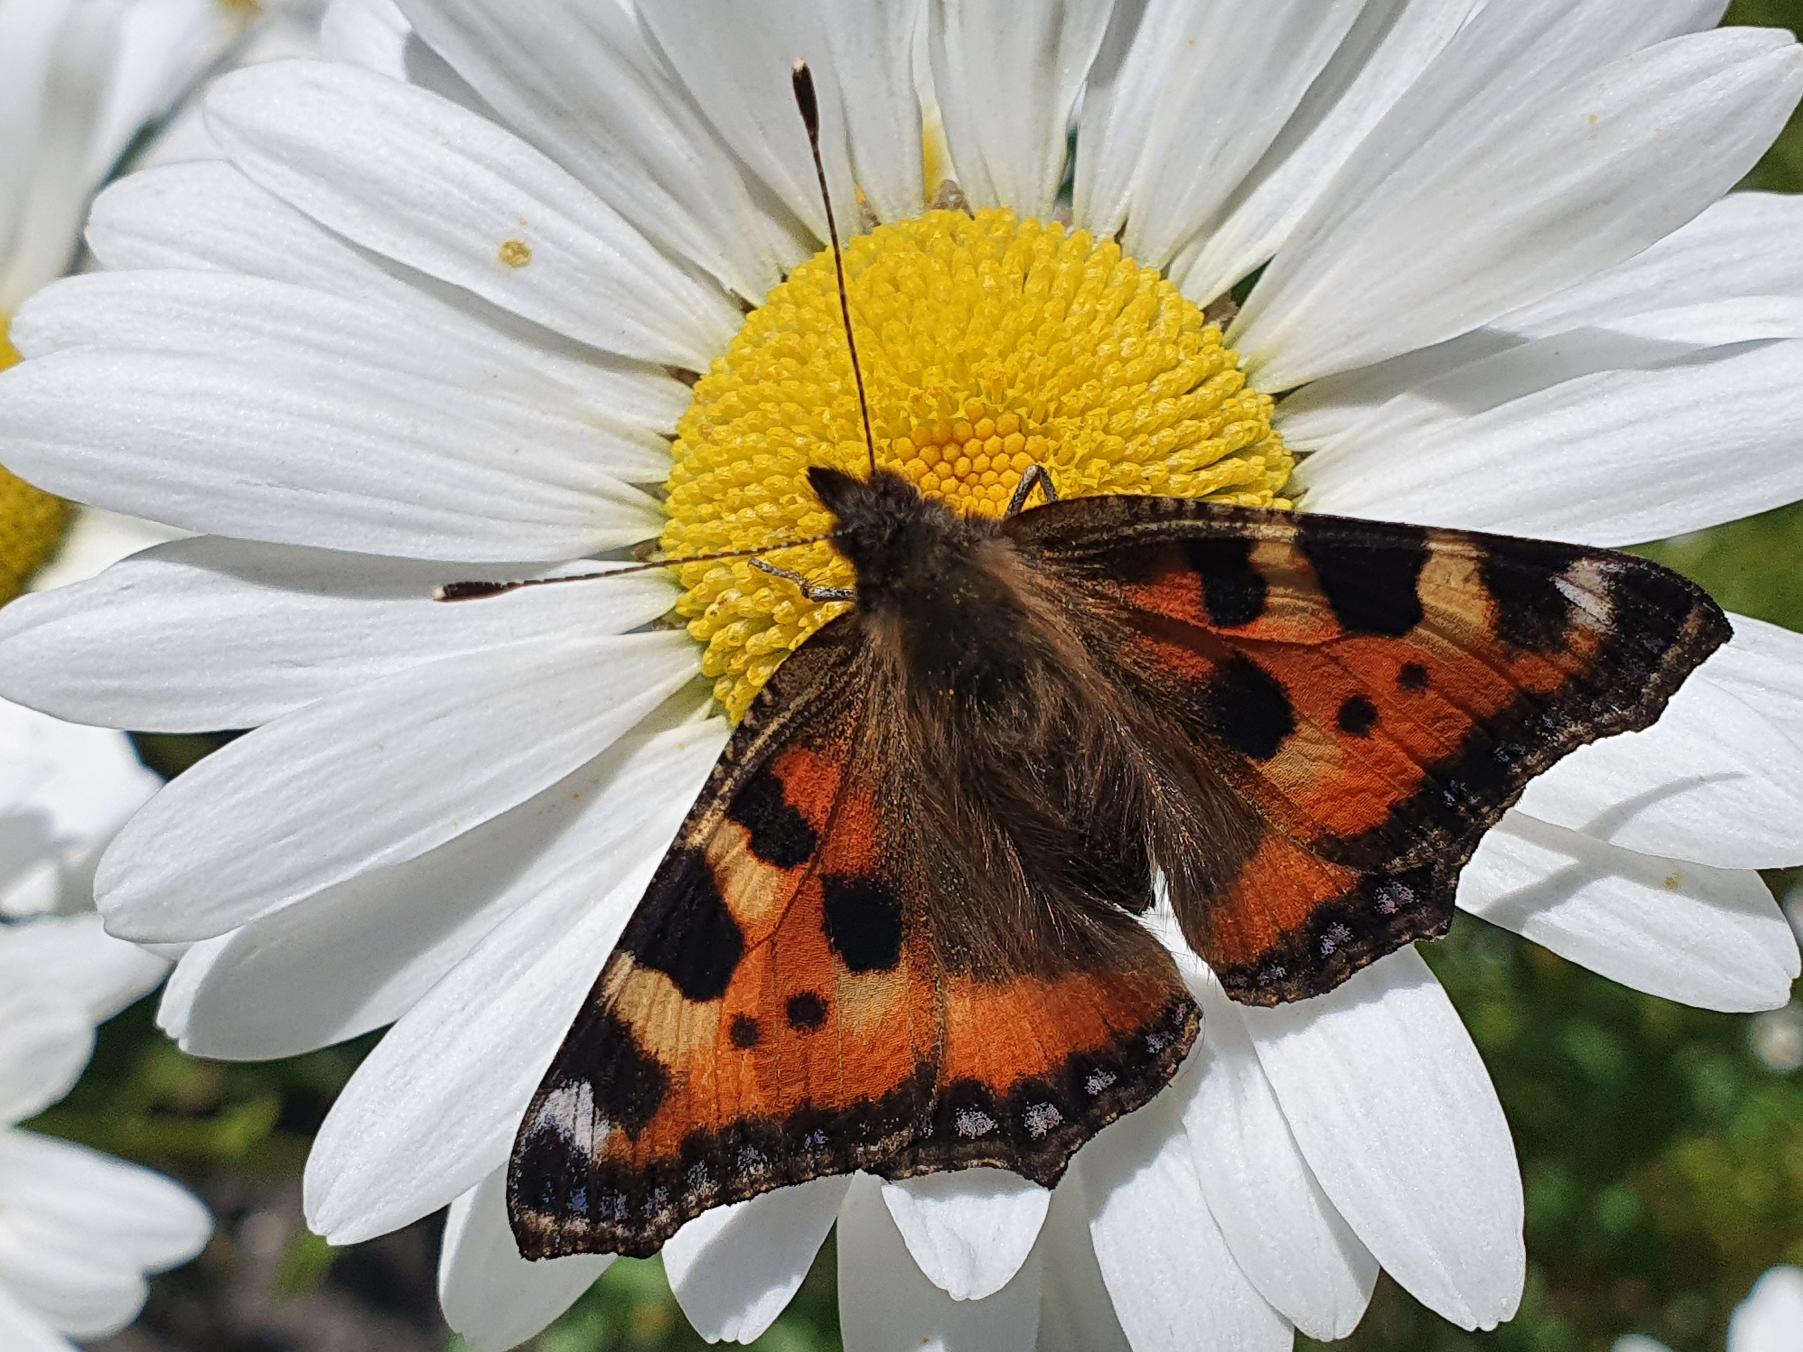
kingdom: Animalia
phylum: Arthropoda
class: Insecta
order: Lepidoptera
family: Nymphalidae
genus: Aglais
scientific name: Aglais urticae
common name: Nældens takvinge
